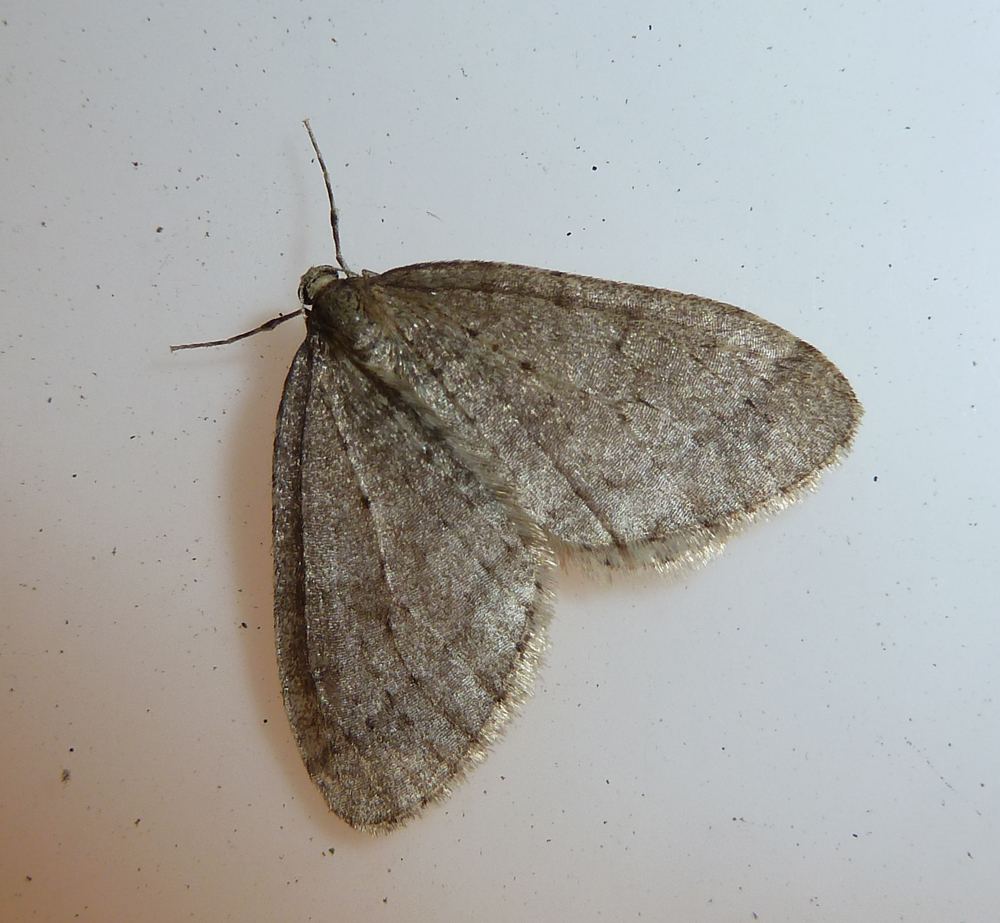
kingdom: Animalia
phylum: Arthropoda
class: Insecta
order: Lepidoptera
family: Geometridae
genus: Operophtera
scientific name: Operophtera brumata
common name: Winter moth
